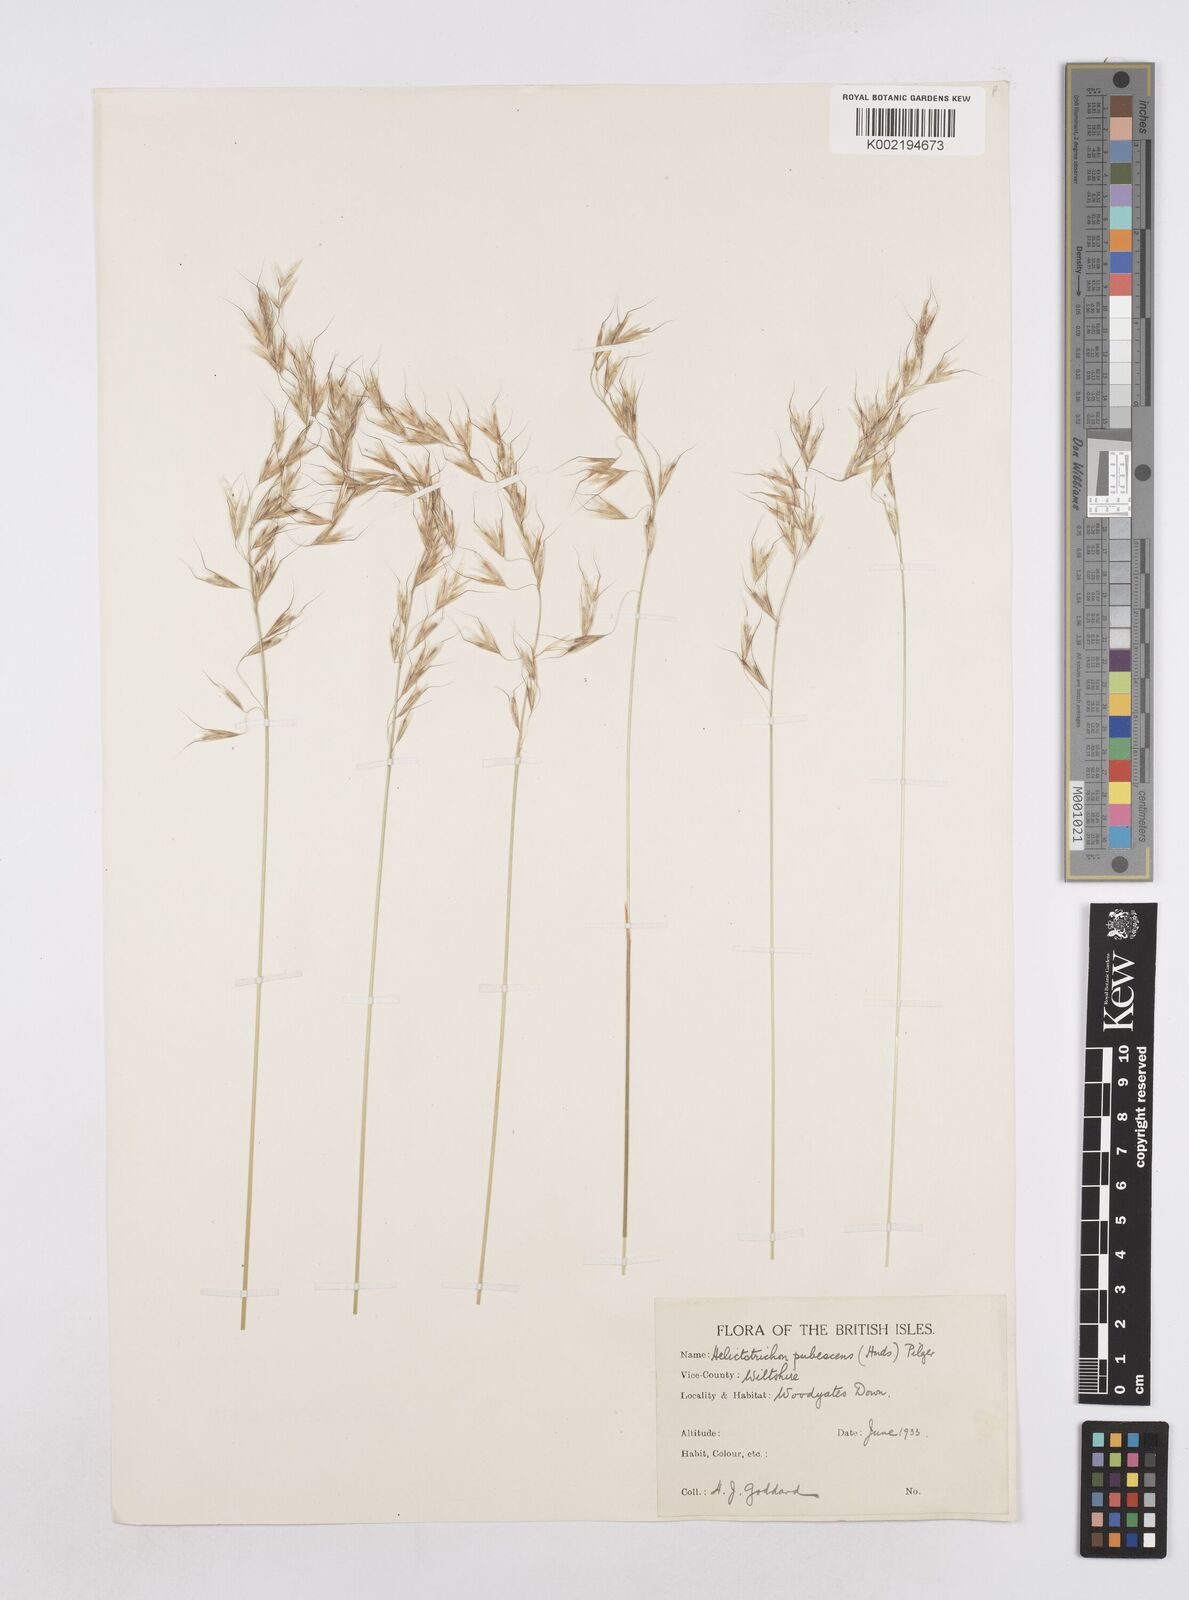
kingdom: Plantae
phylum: Tracheophyta
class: Liliopsida
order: Poales
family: Poaceae
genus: Avenula
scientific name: Avenula pubescens
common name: Downy alpine oatgrass
